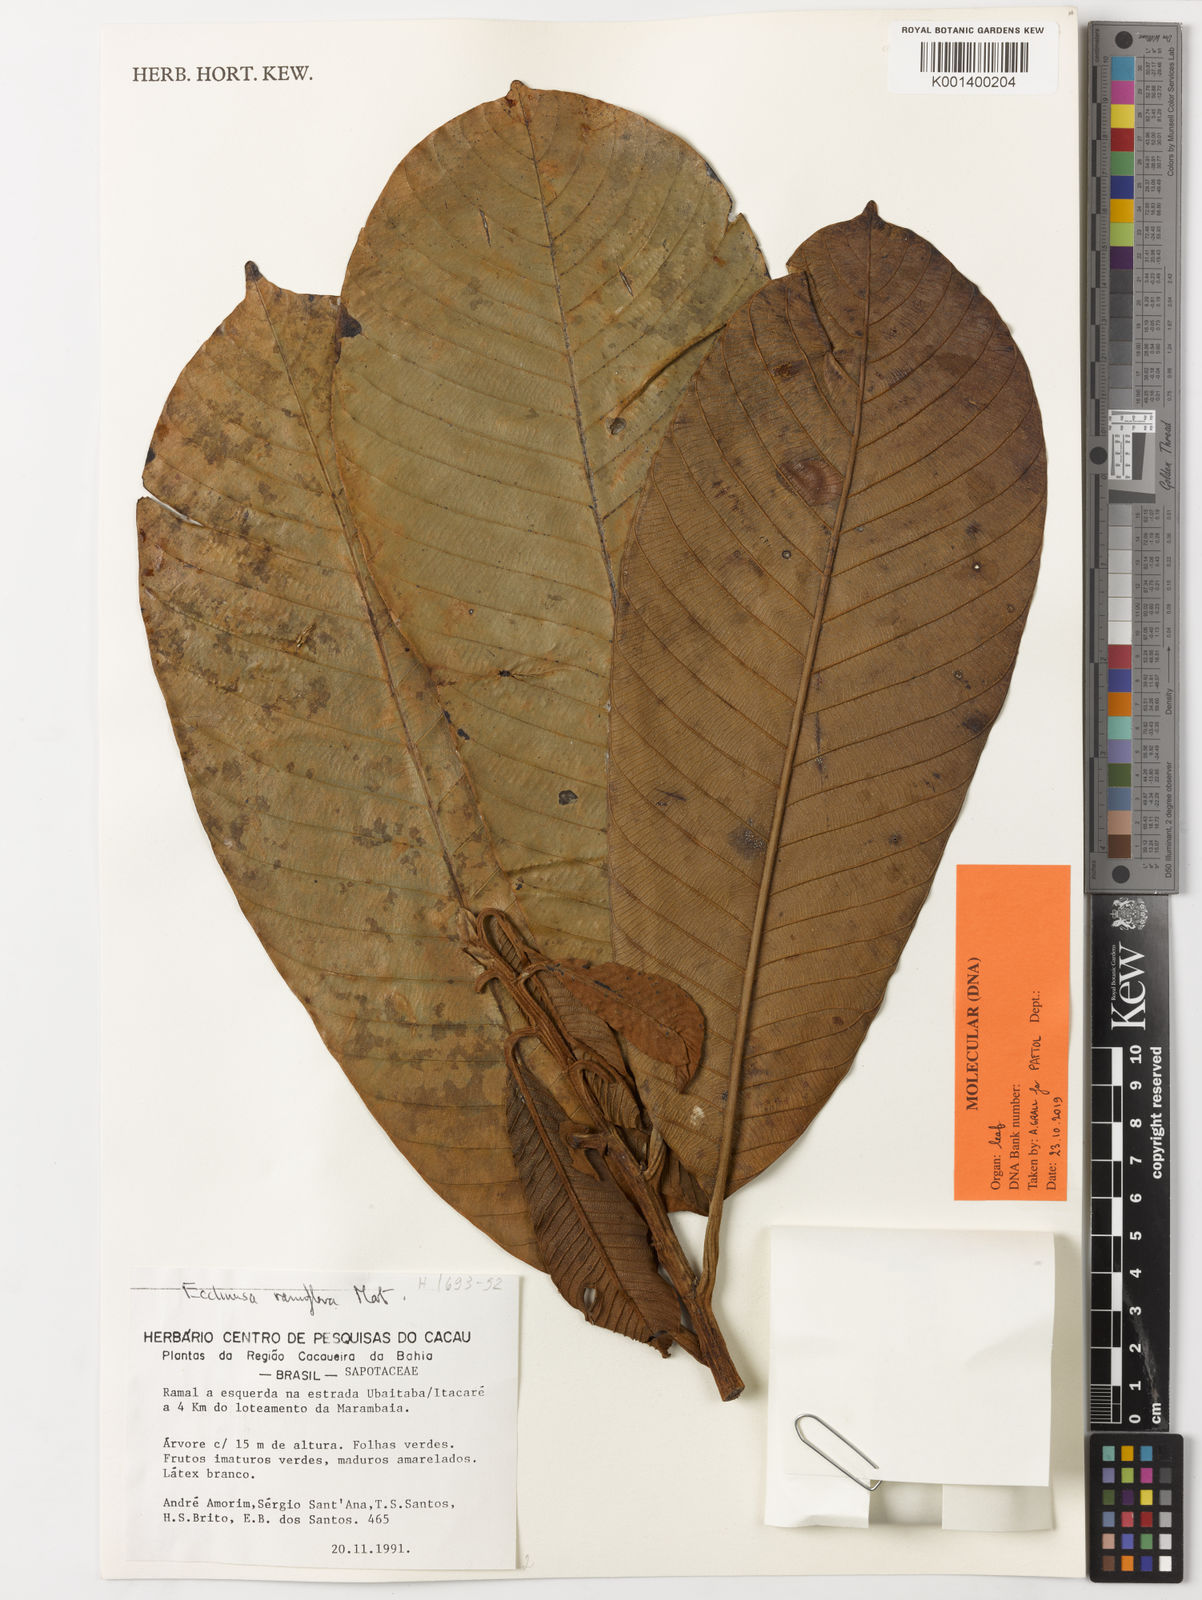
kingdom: Plantae
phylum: Tracheophyta
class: Magnoliopsida
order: Ericales
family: Sapotaceae
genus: Ecclinusa
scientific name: Ecclinusa ramiflora
